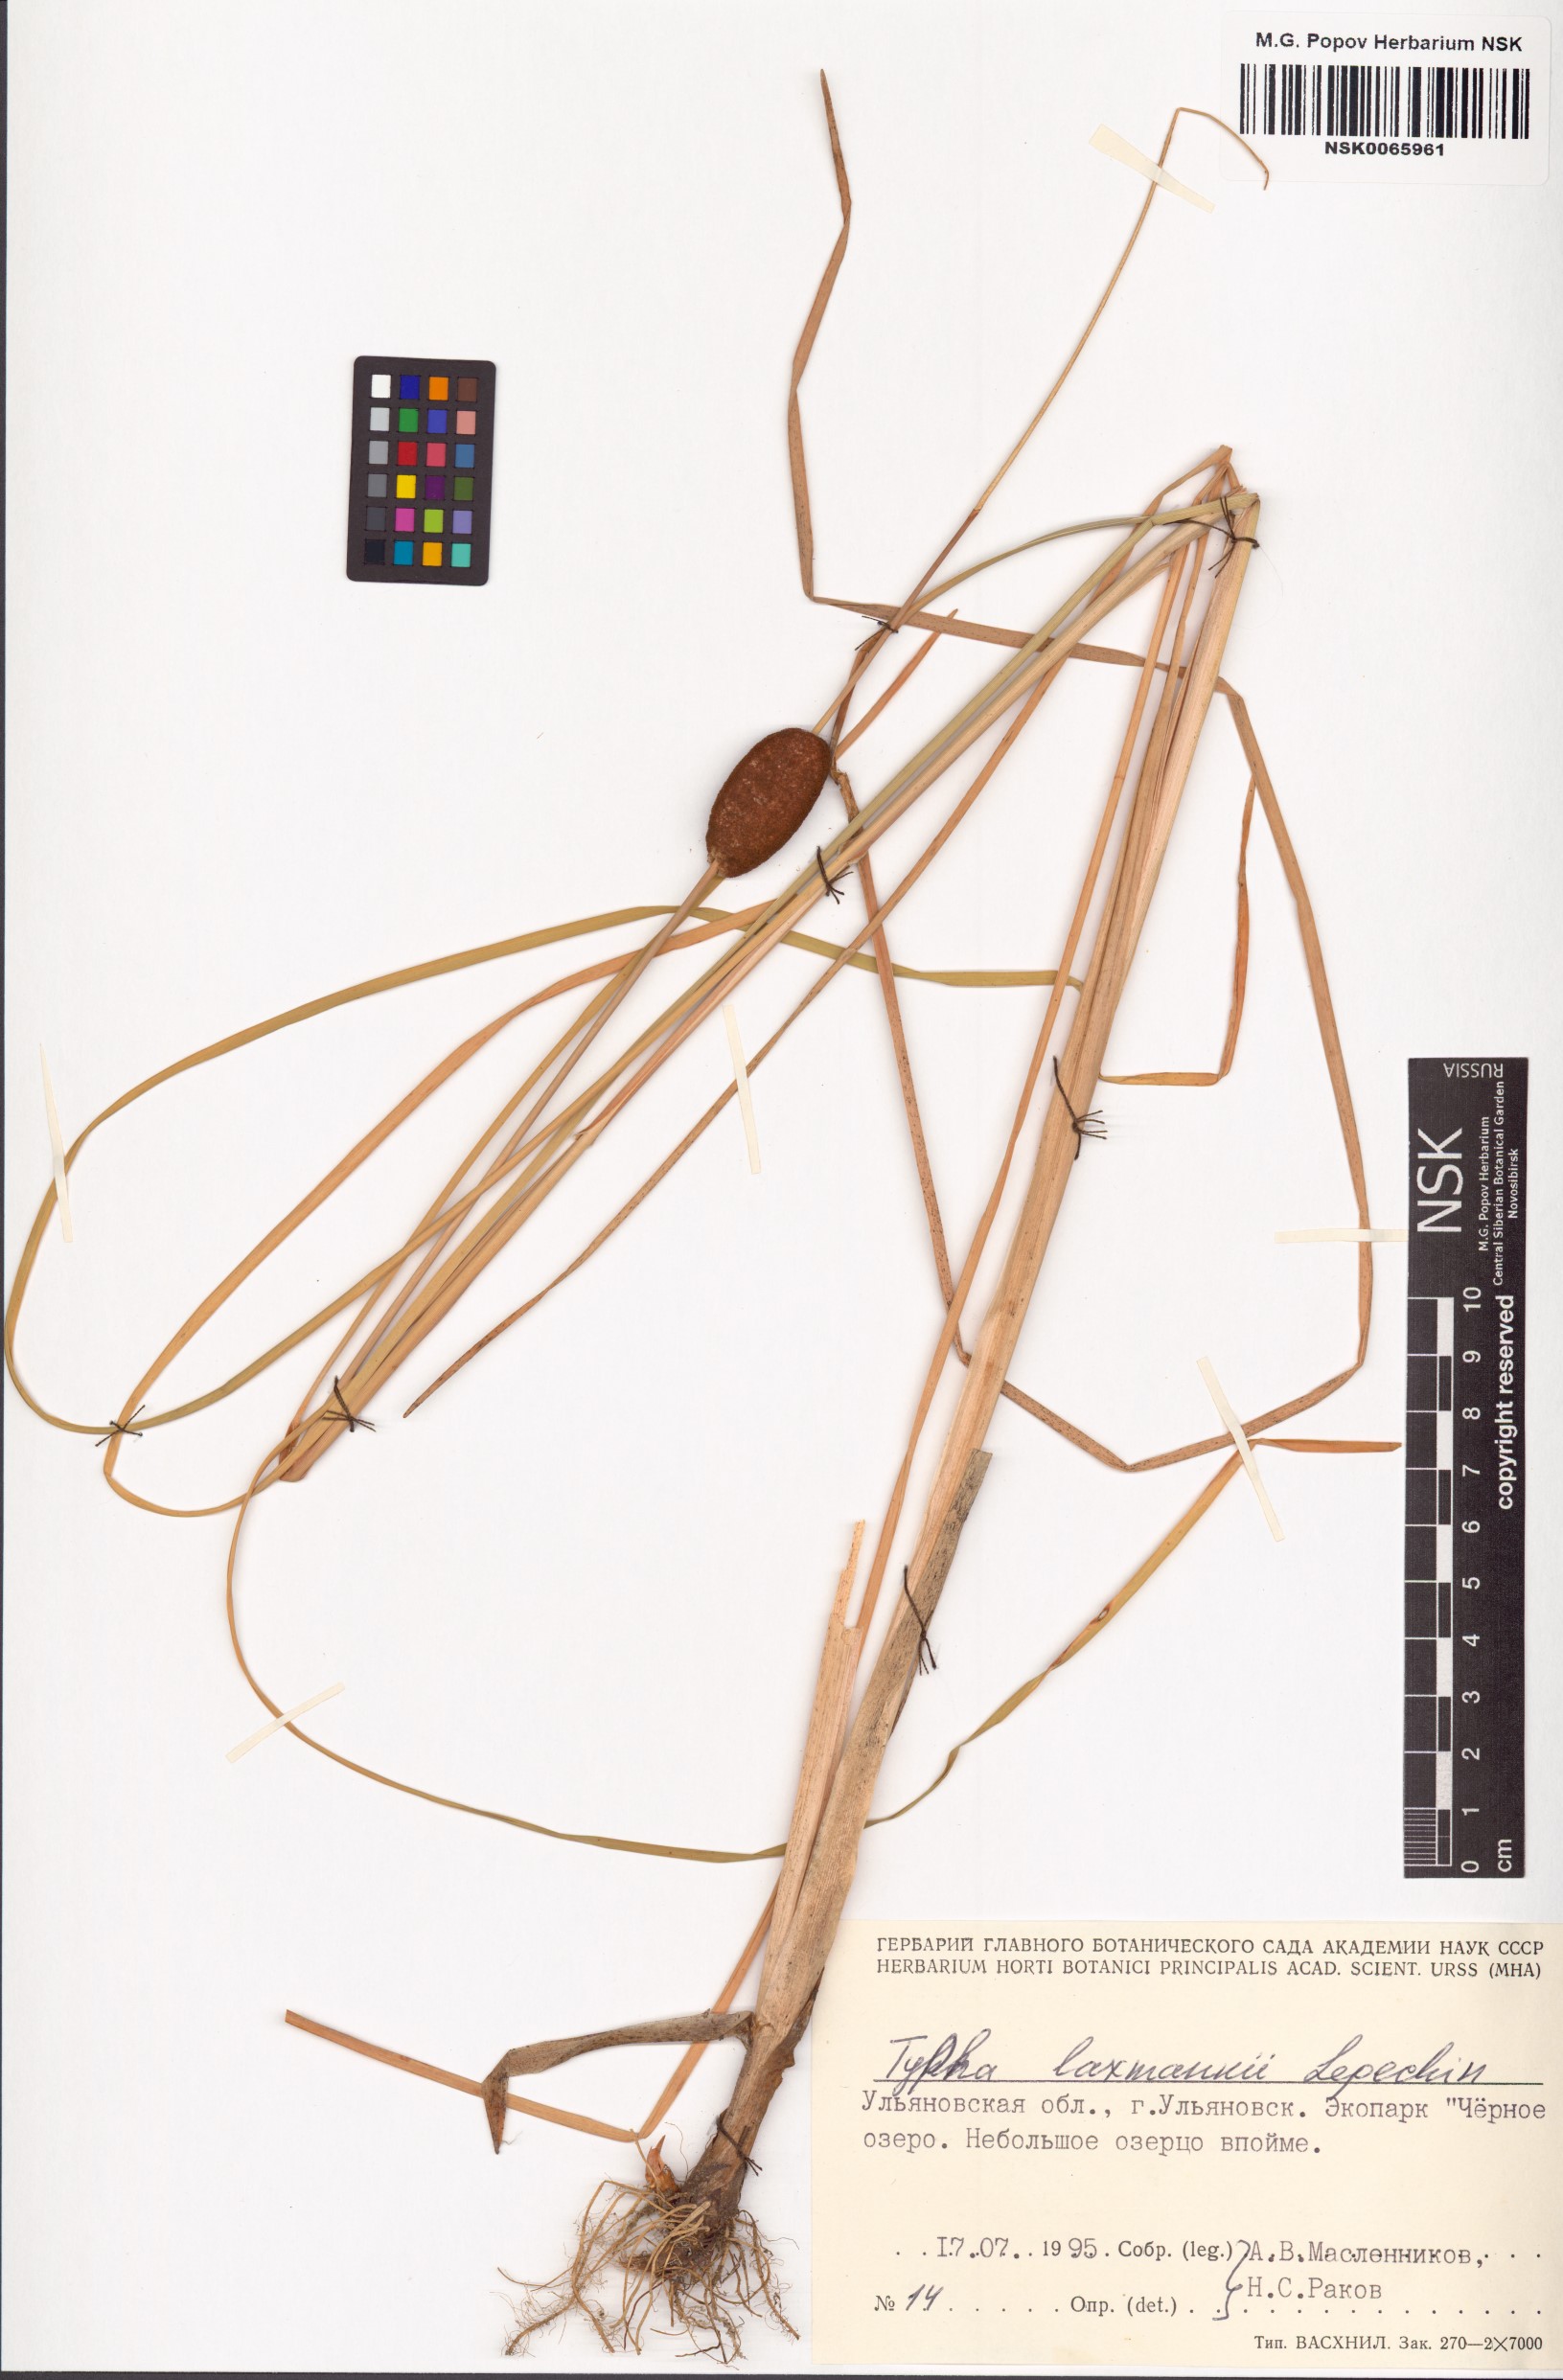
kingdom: Plantae
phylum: Tracheophyta
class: Liliopsida
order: Poales
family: Typhaceae
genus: Typha
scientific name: Typha laxmannii
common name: Laxman’s bulrush
